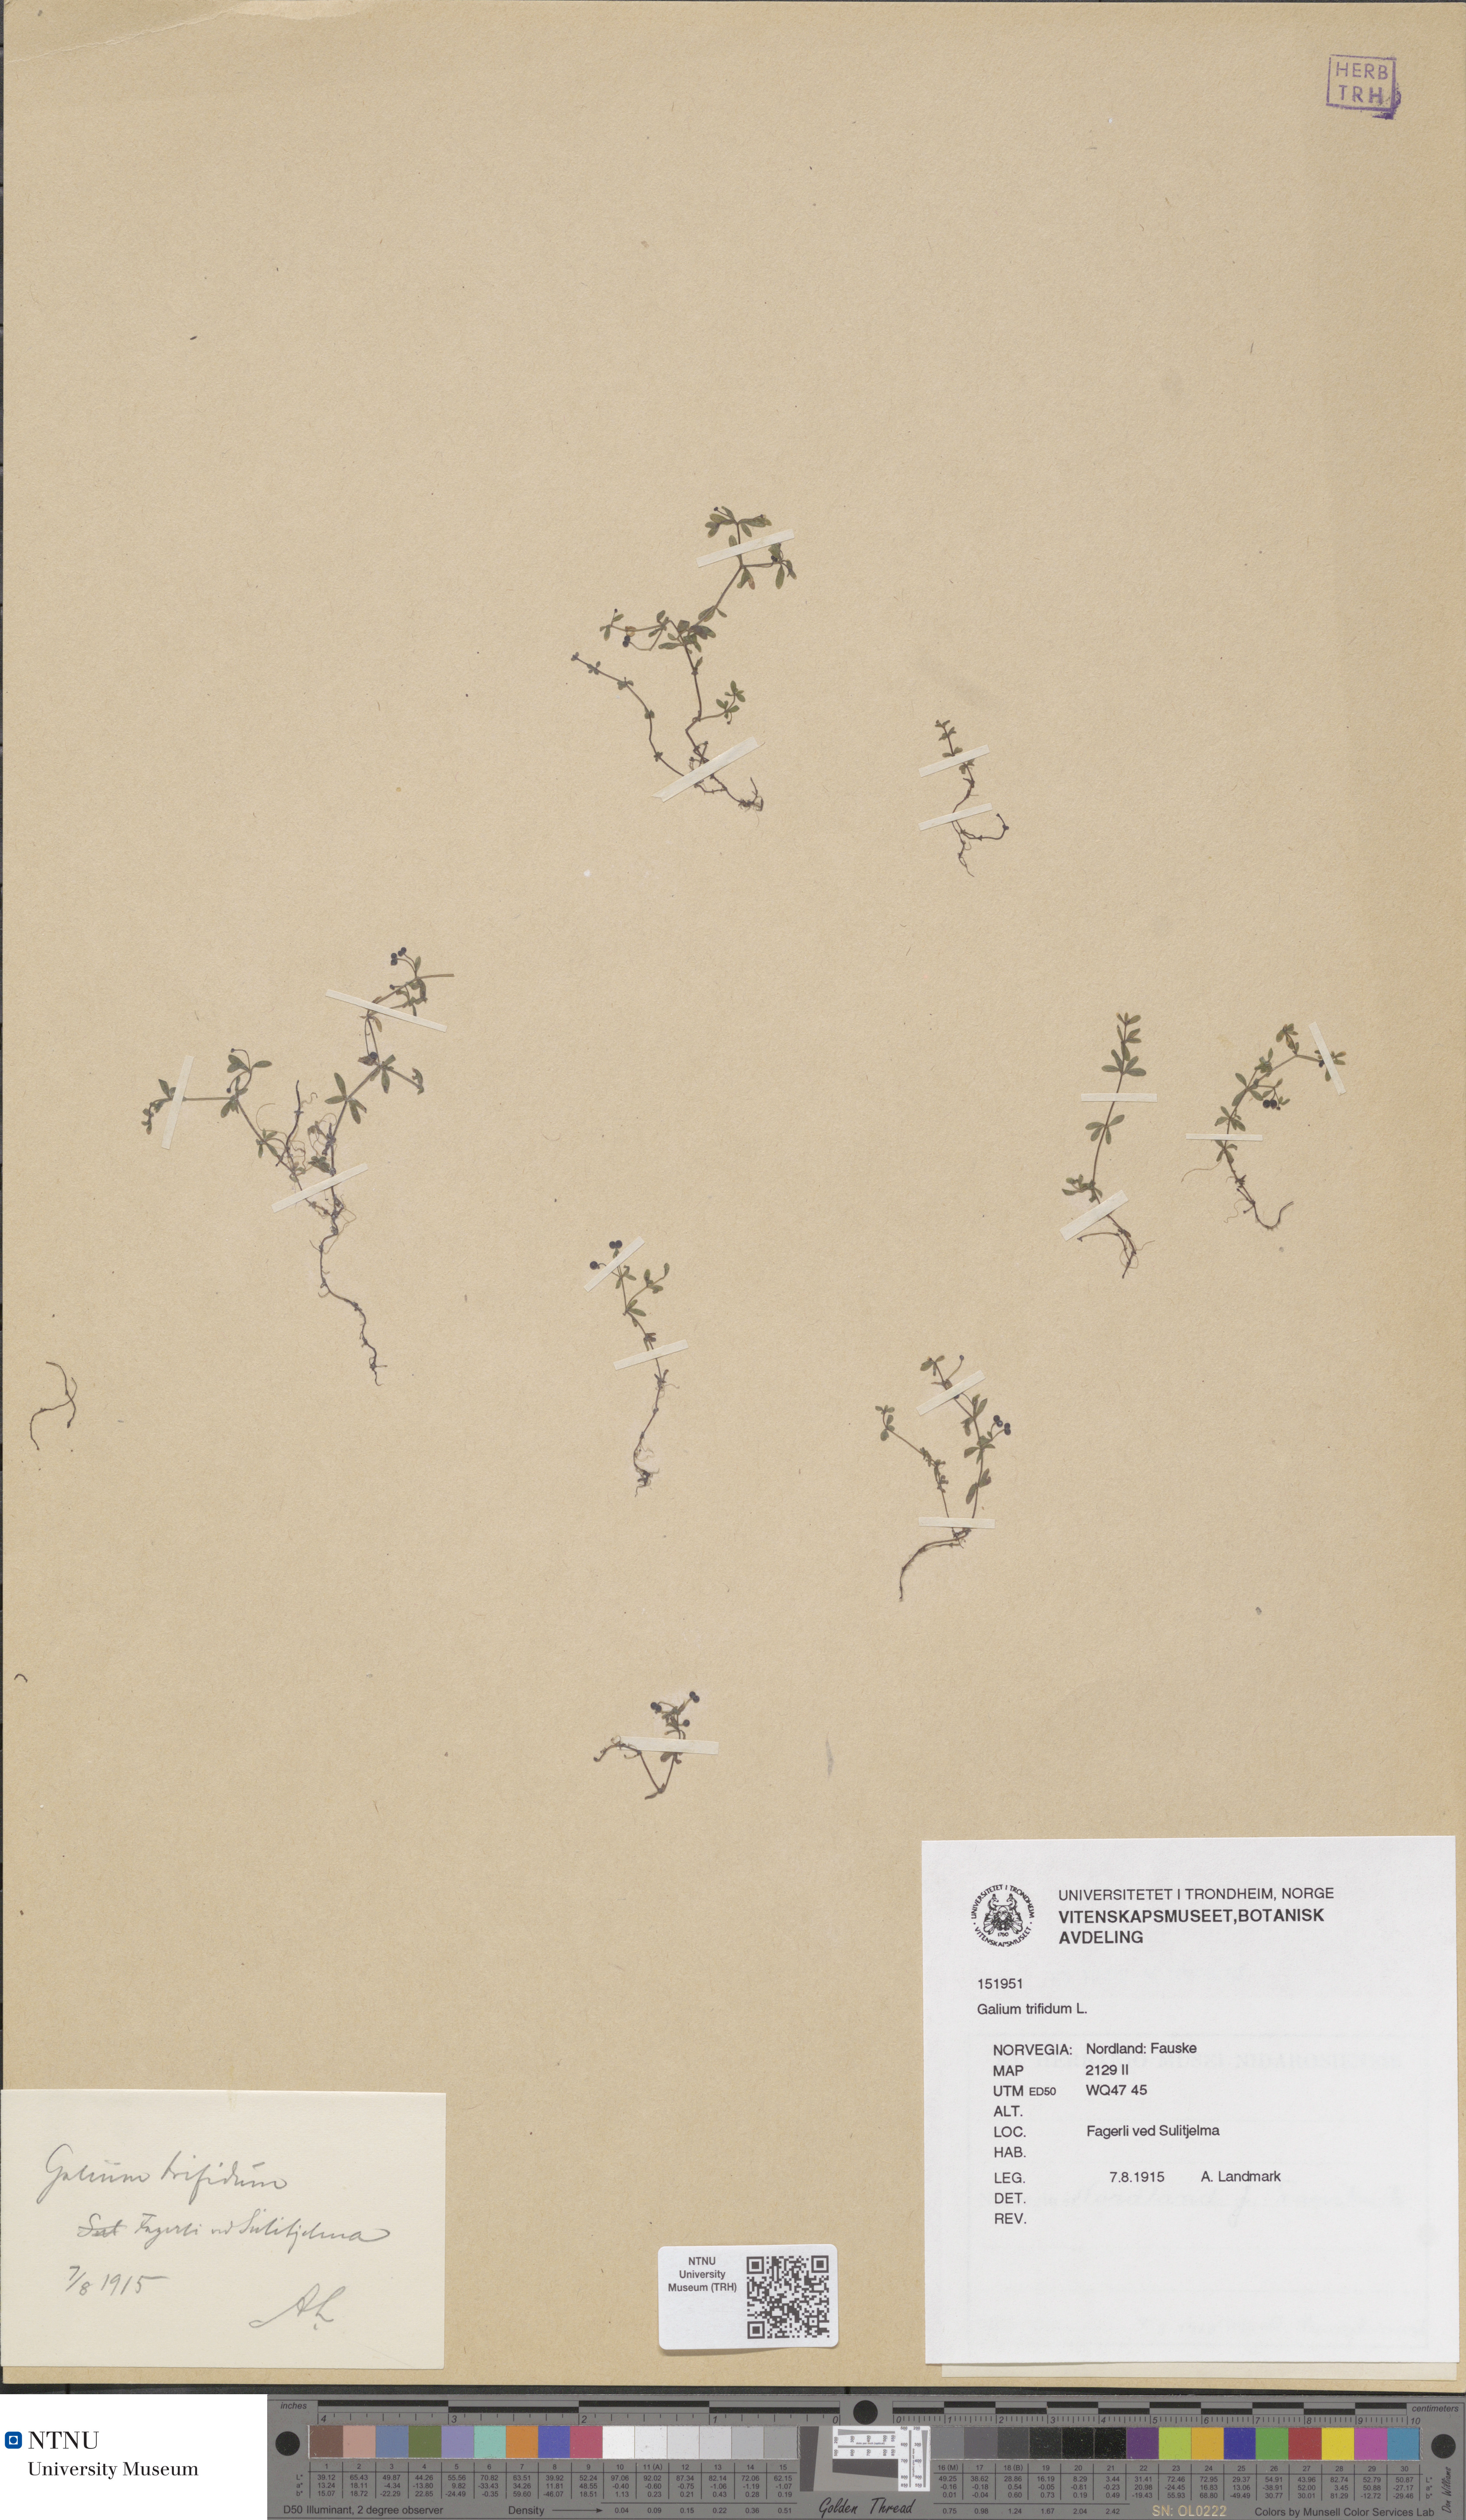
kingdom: Plantae
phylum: Tracheophyta
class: Magnoliopsida
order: Gentianales
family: Rubiaceae
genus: Galium
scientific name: Galium trifidum
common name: Small bedstraw
